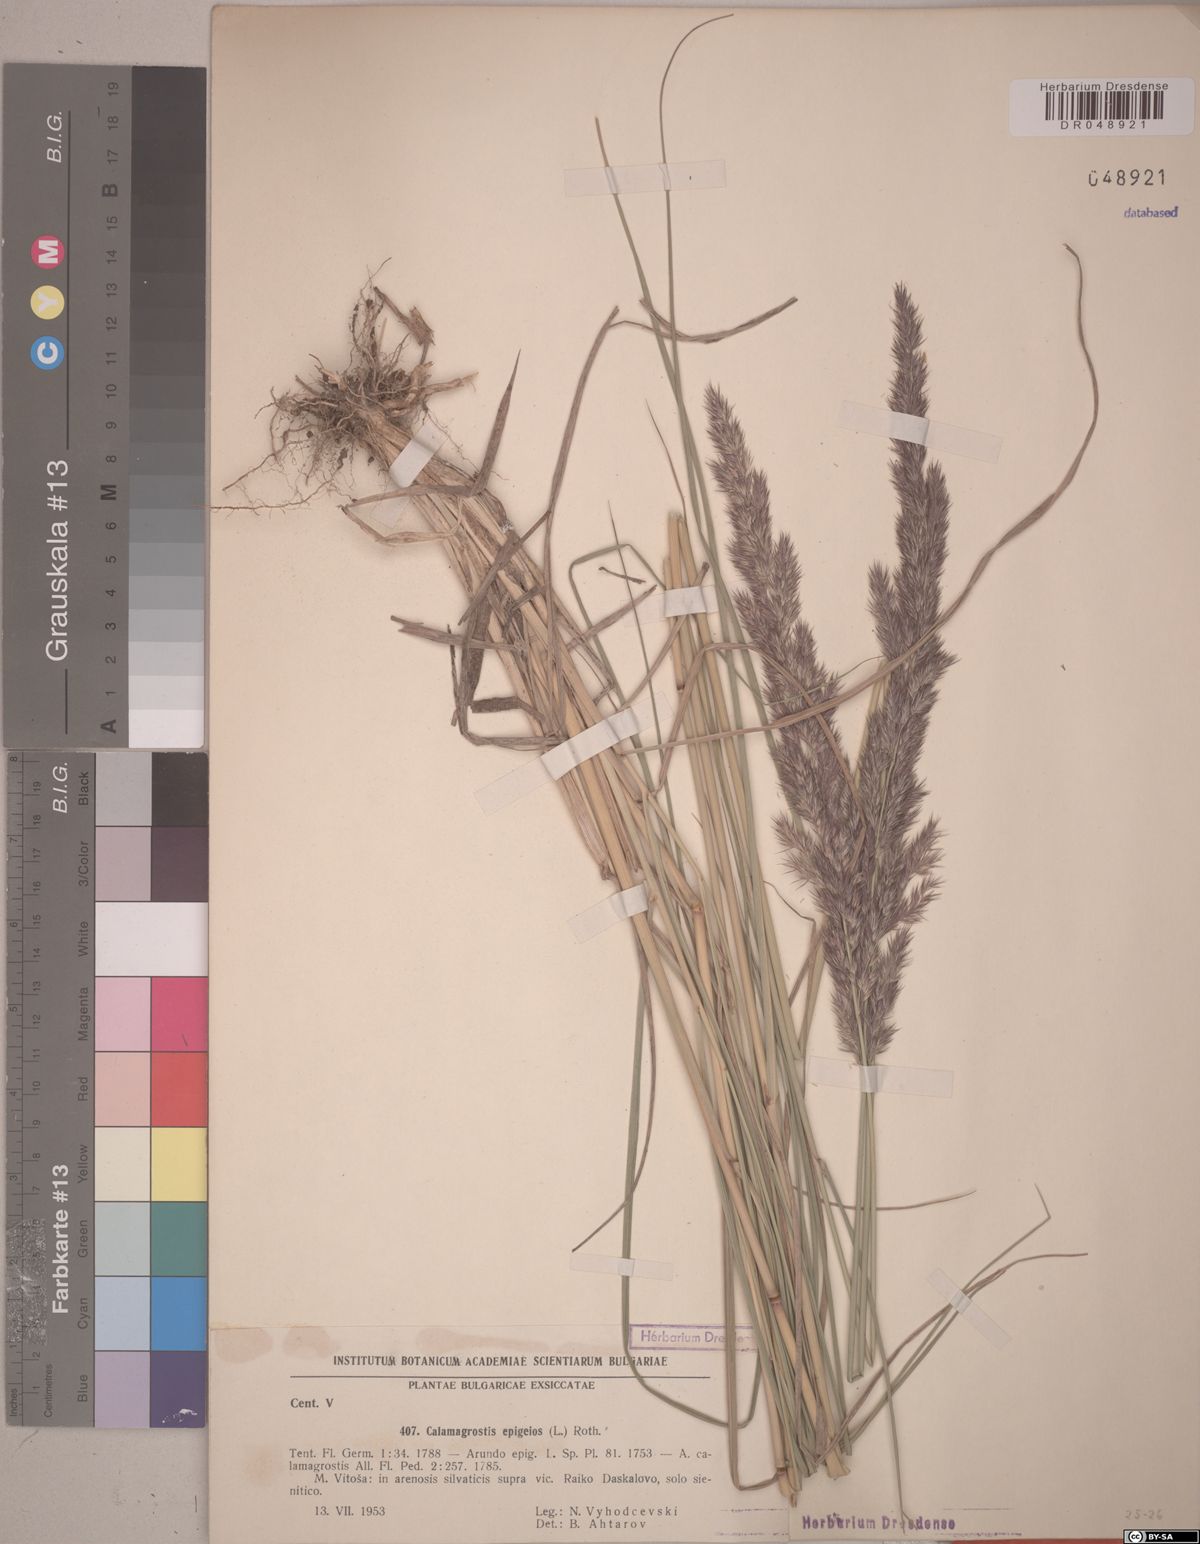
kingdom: Plantae
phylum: Tracheophyta
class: Liliopsida
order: Poales
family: Poaceae
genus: Calamagrostis
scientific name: Calamagrostis epigejos
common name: Wood small-reed
